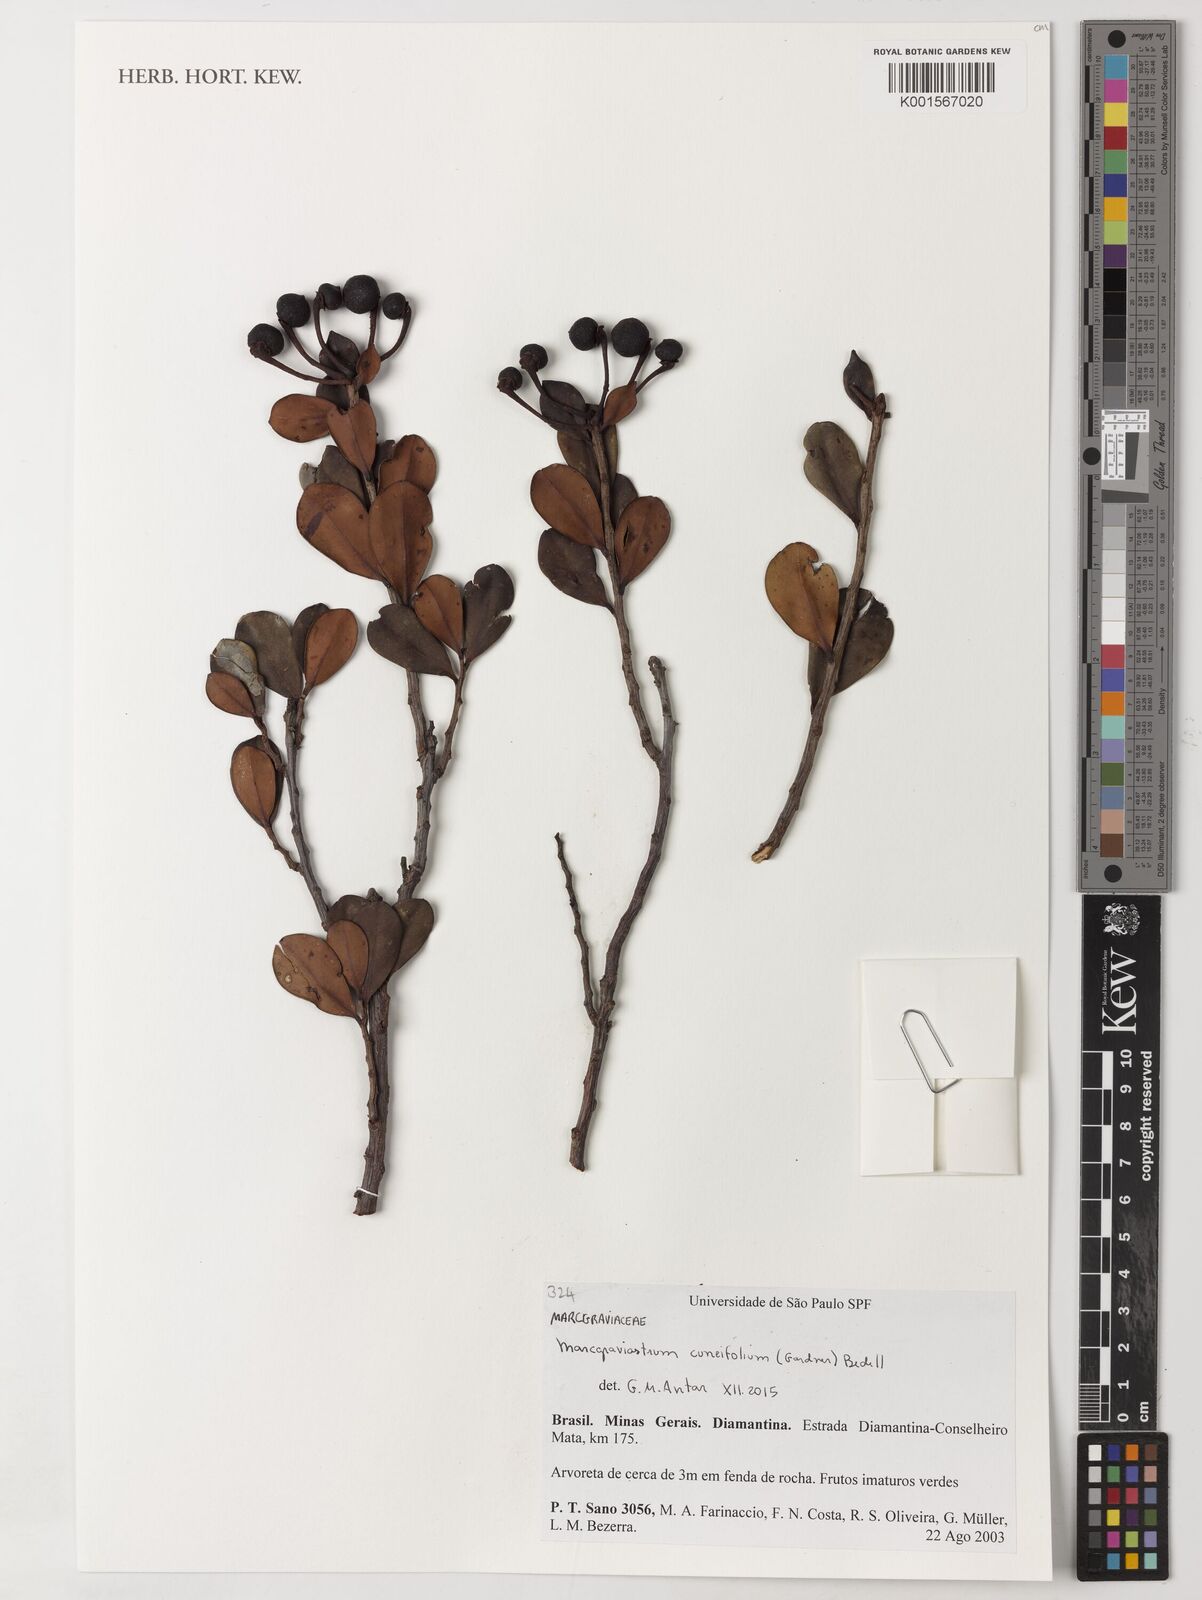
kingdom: Plantae
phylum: Tracheophyta
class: Magnoliopsida
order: Ericales
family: Marcgraviaceae
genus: Marcgraviastrum
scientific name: Marcgraviastrum cuneifolium
